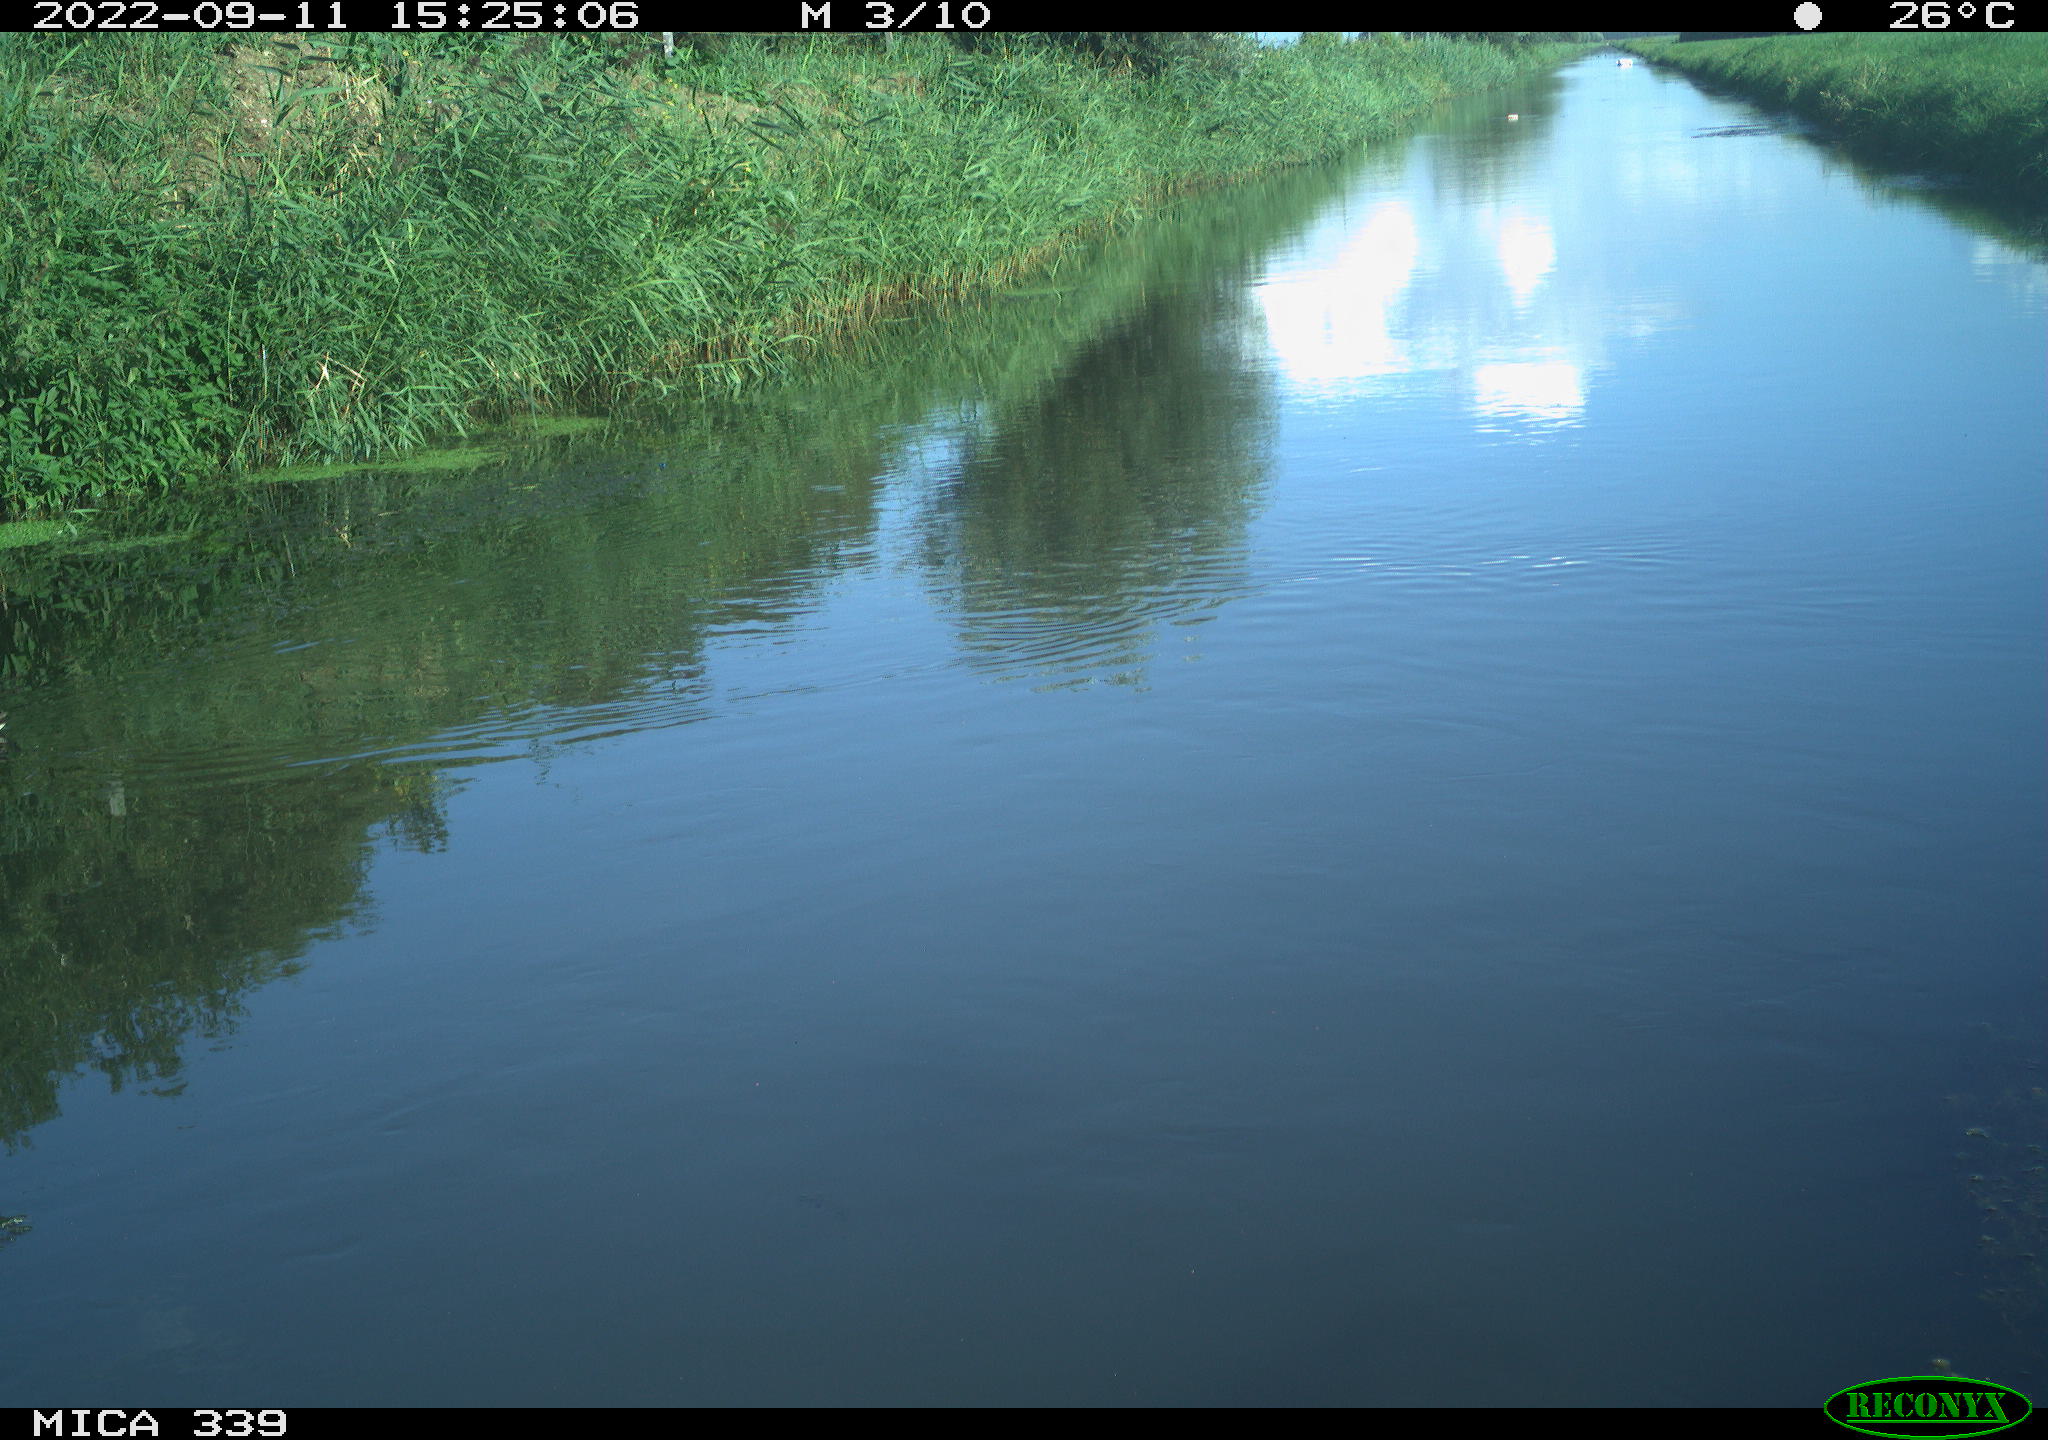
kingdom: Animalia
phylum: Chordata
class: Aves
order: Gruiformes
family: Rallidae
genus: Gallinula
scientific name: Gallinula chloropus
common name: Common moorhen
